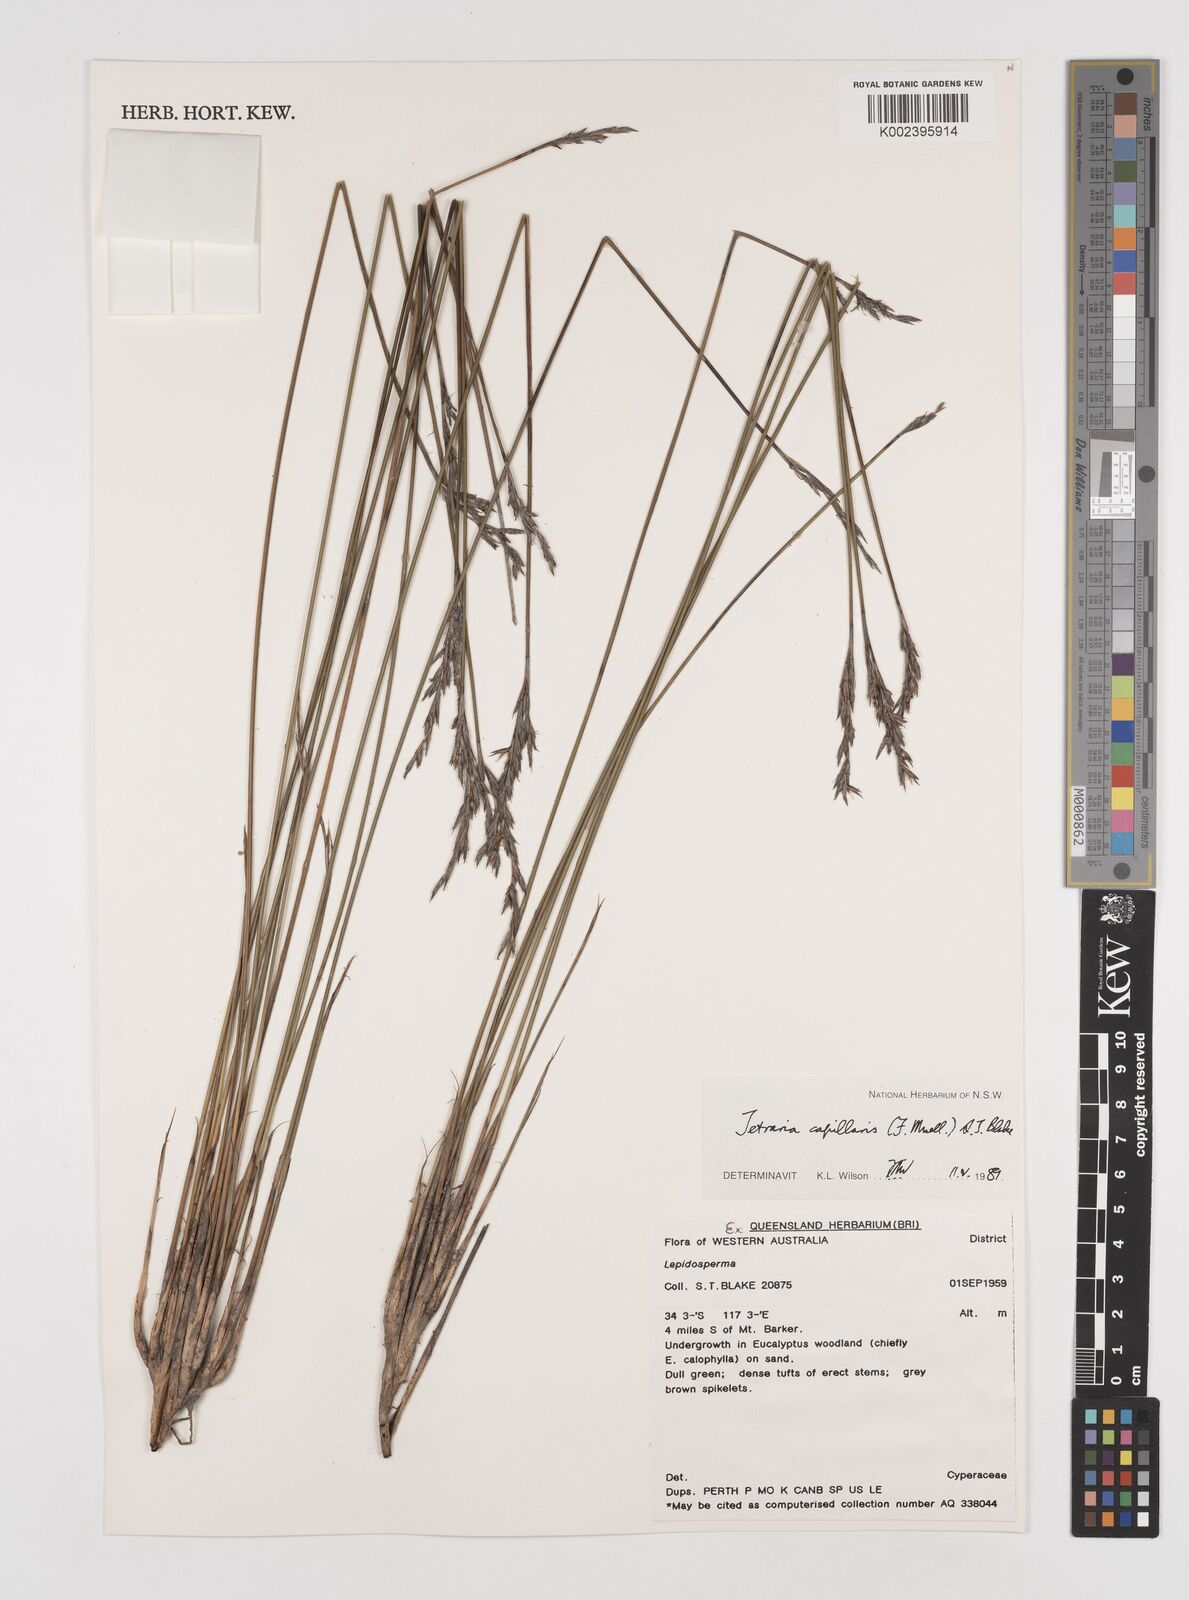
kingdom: Plantae
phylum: Tracheophyta
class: Liliopsida
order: Poales
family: Cyperaceae
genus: Tetraria
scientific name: Tetraria capillaris
